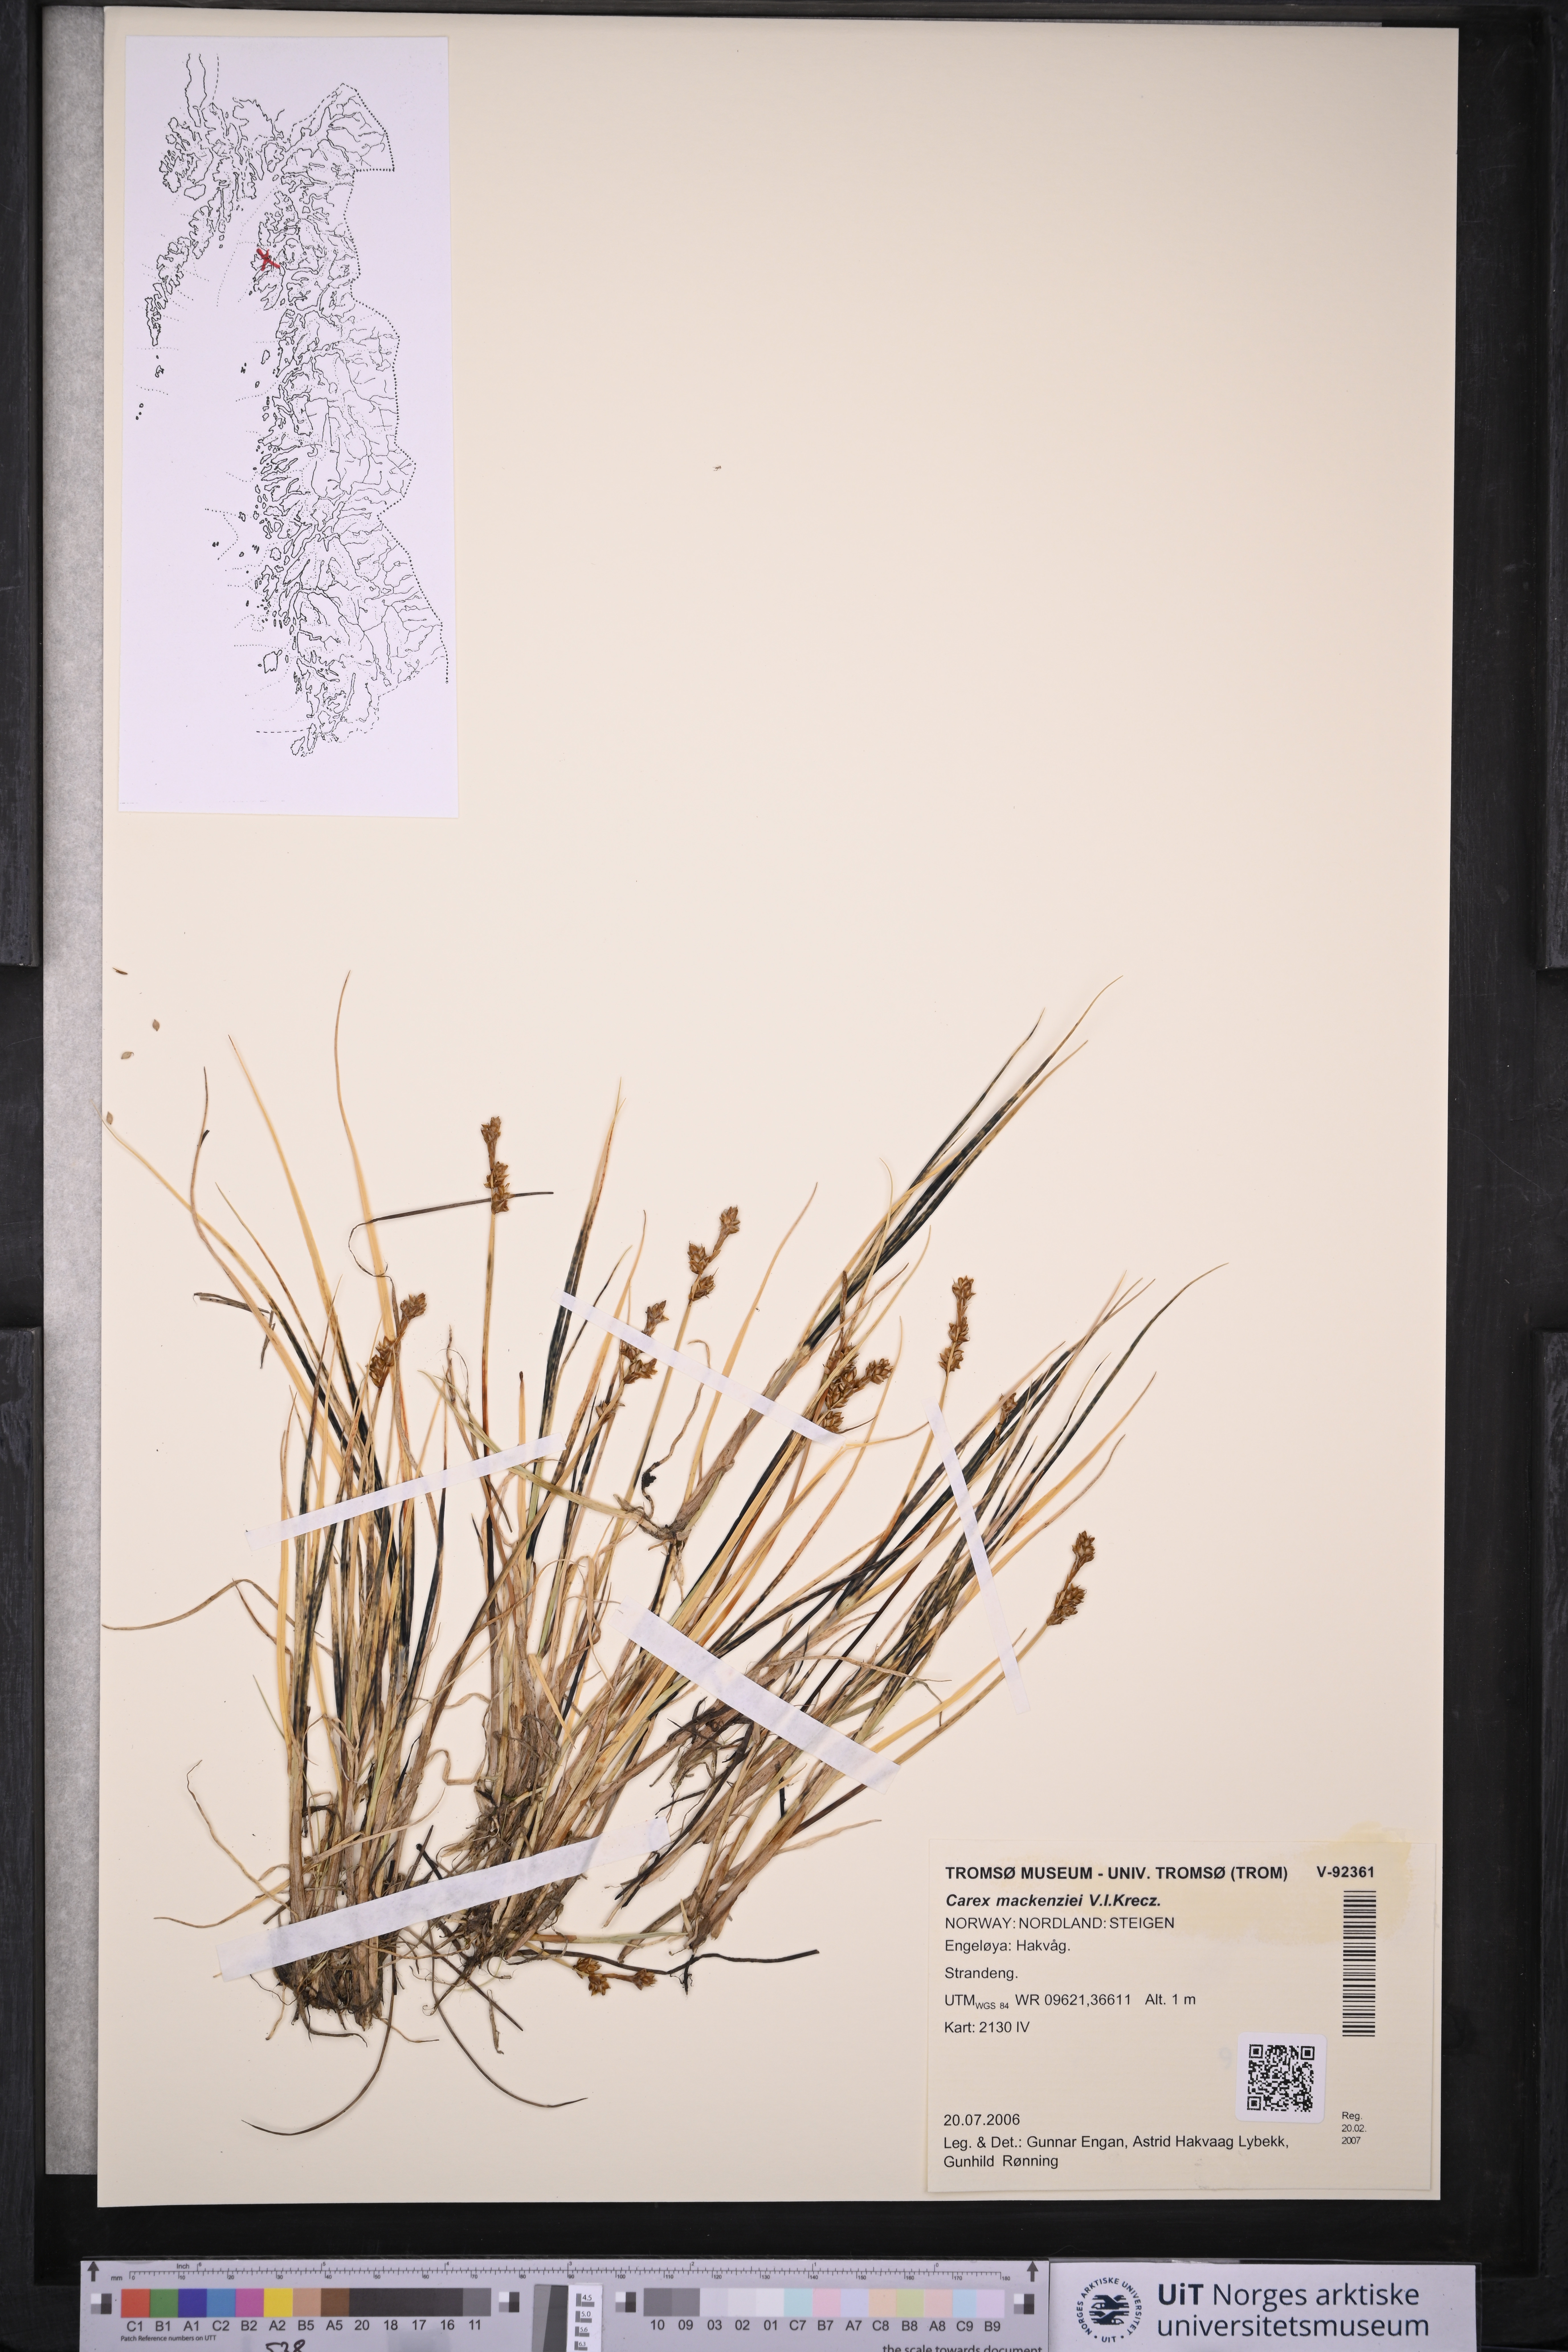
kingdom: Plantae
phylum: Tracheophyta
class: Liliopsida
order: Poales
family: Cyperaceae
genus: Carex
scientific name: Carex mackenziei
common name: Mackenzie's sedge
